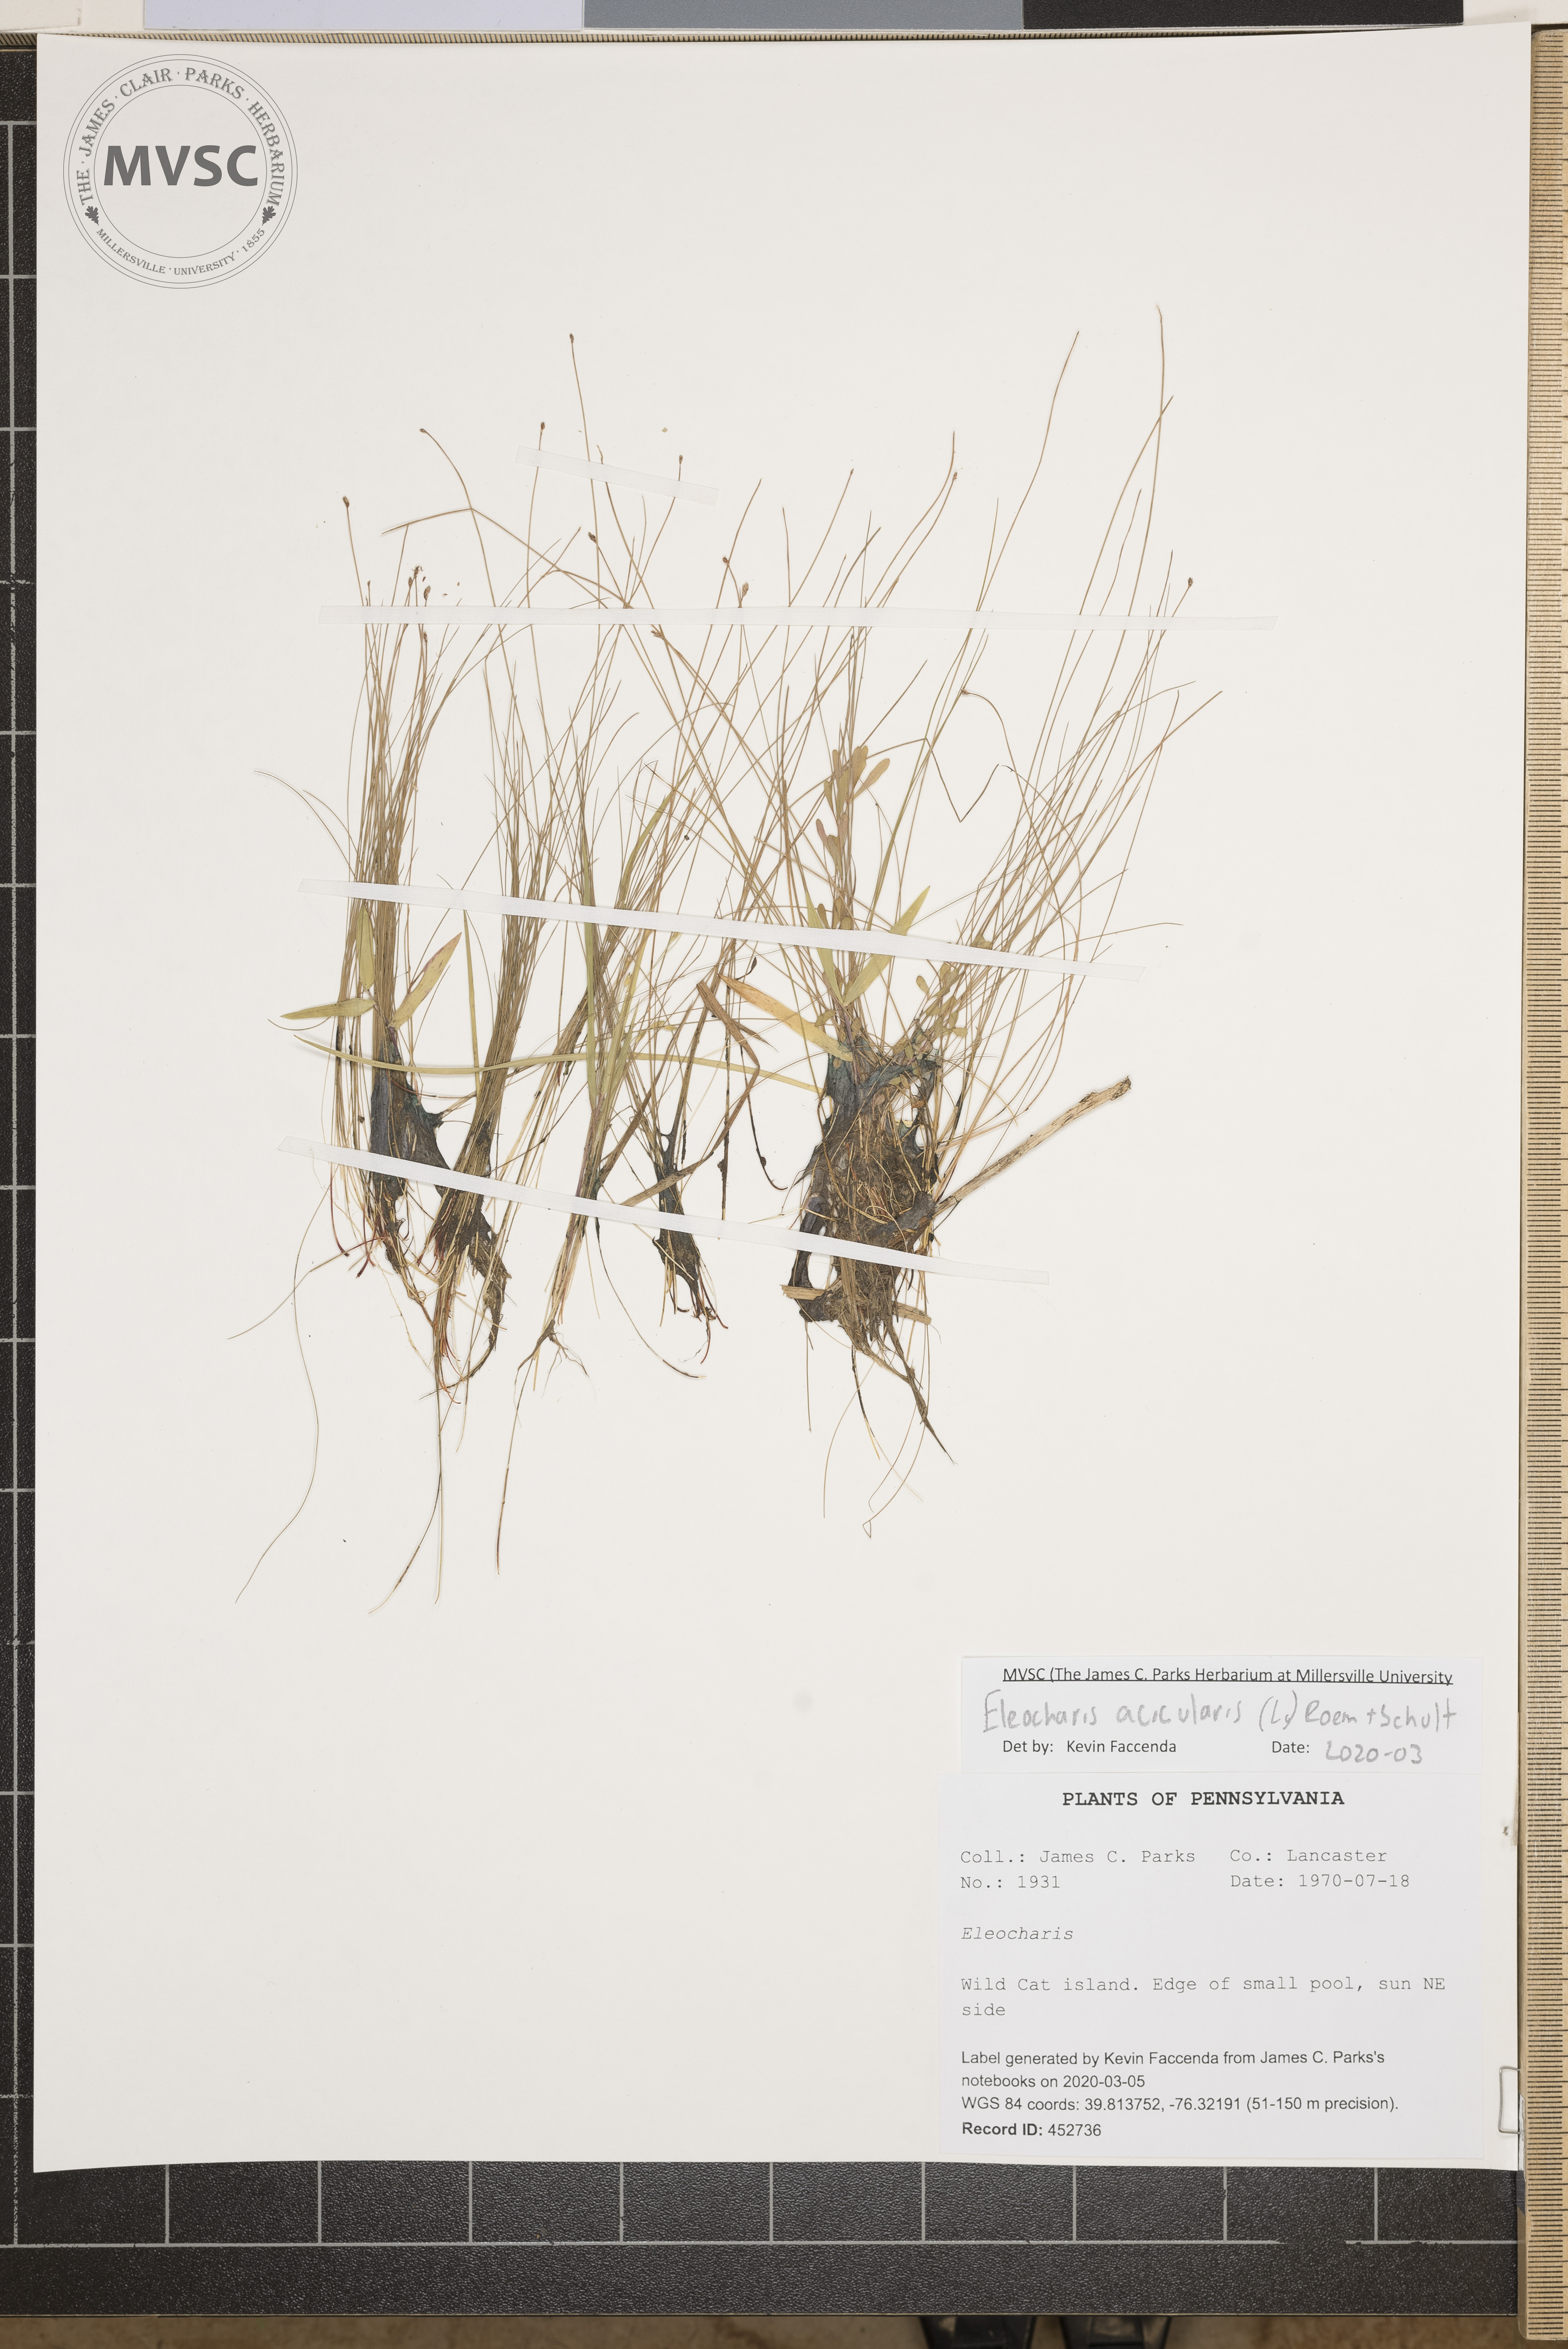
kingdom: Plantae
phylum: Tracheophyta
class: Liliopsida
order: Poales
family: Cyperaceae
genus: Eleocharis
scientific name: Eleocharis acicularis
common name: Needle spike-rush
